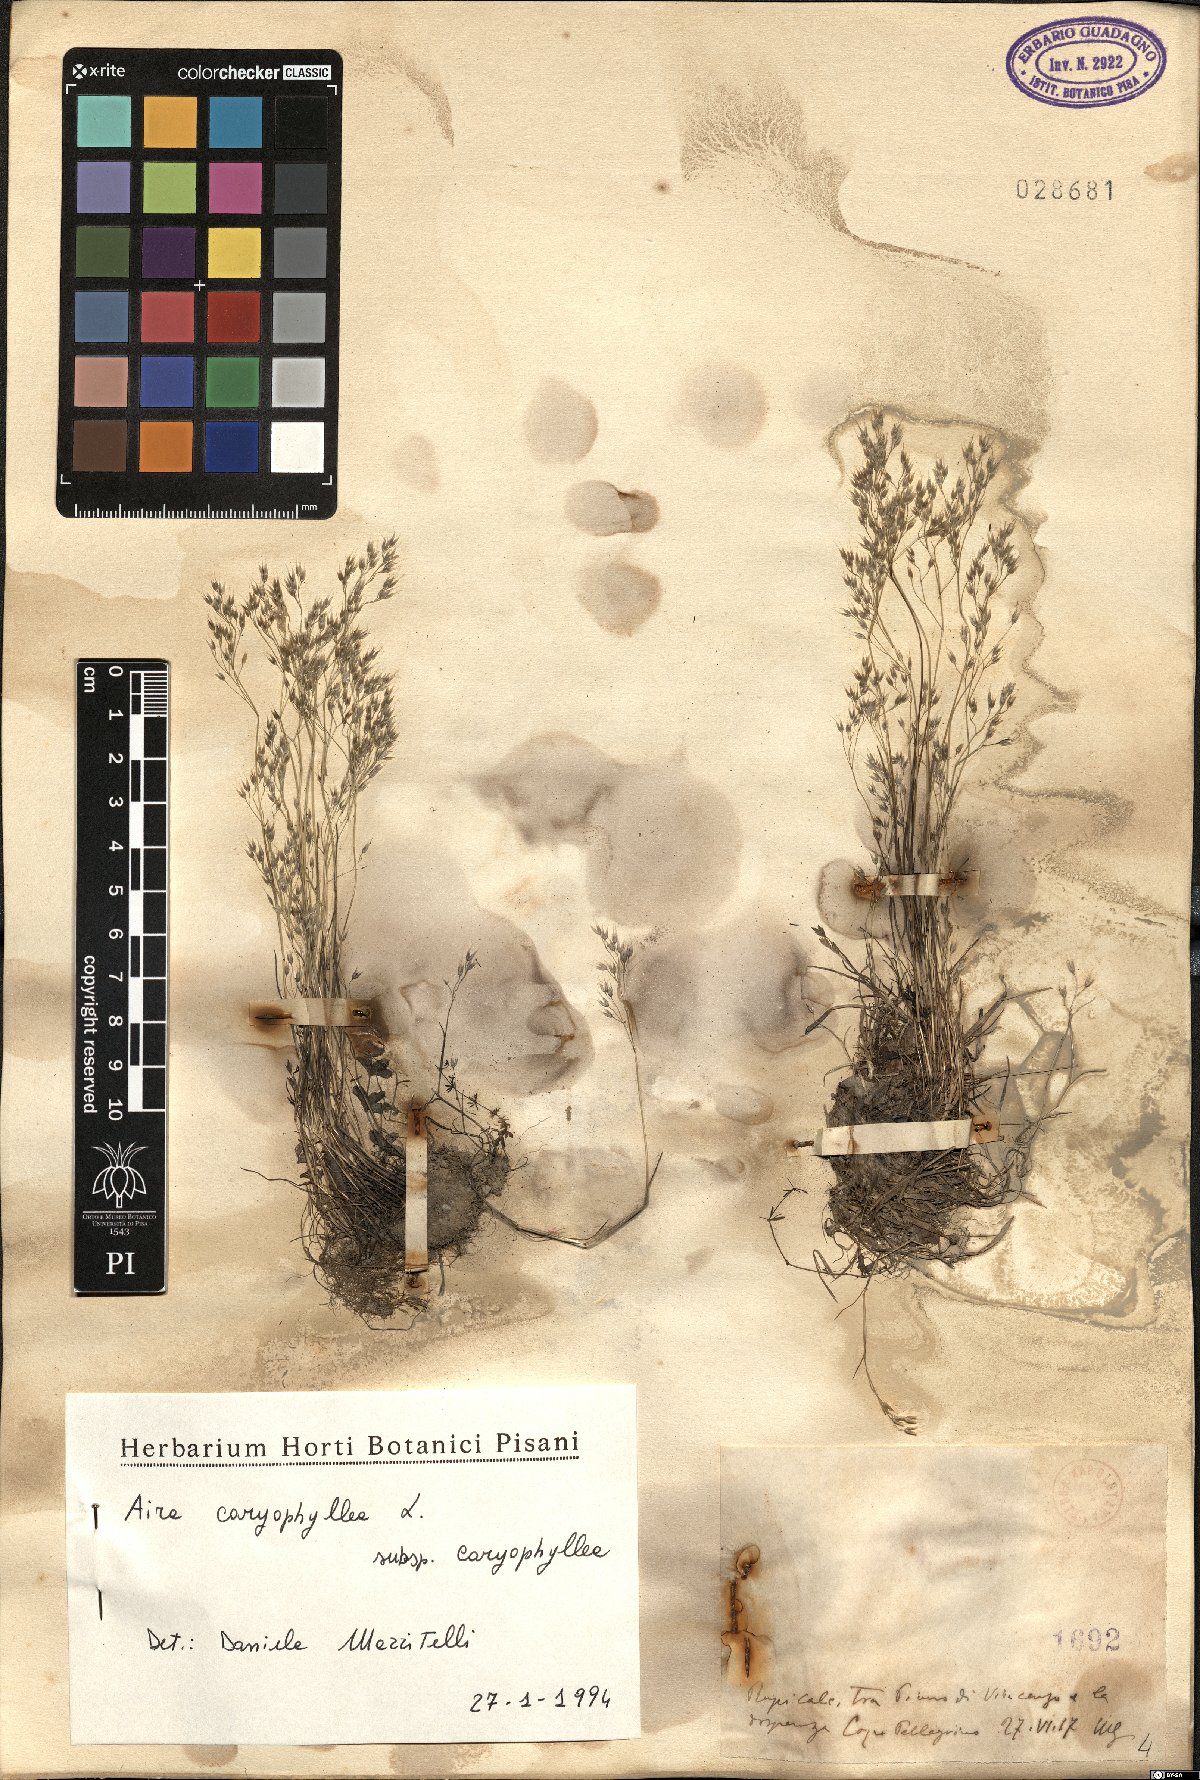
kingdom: Plantae
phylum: Tracheophyta
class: Liliopsida
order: Poales
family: Poaceae
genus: Aira
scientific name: Aira caryophyllea
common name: Silver hairgrass
